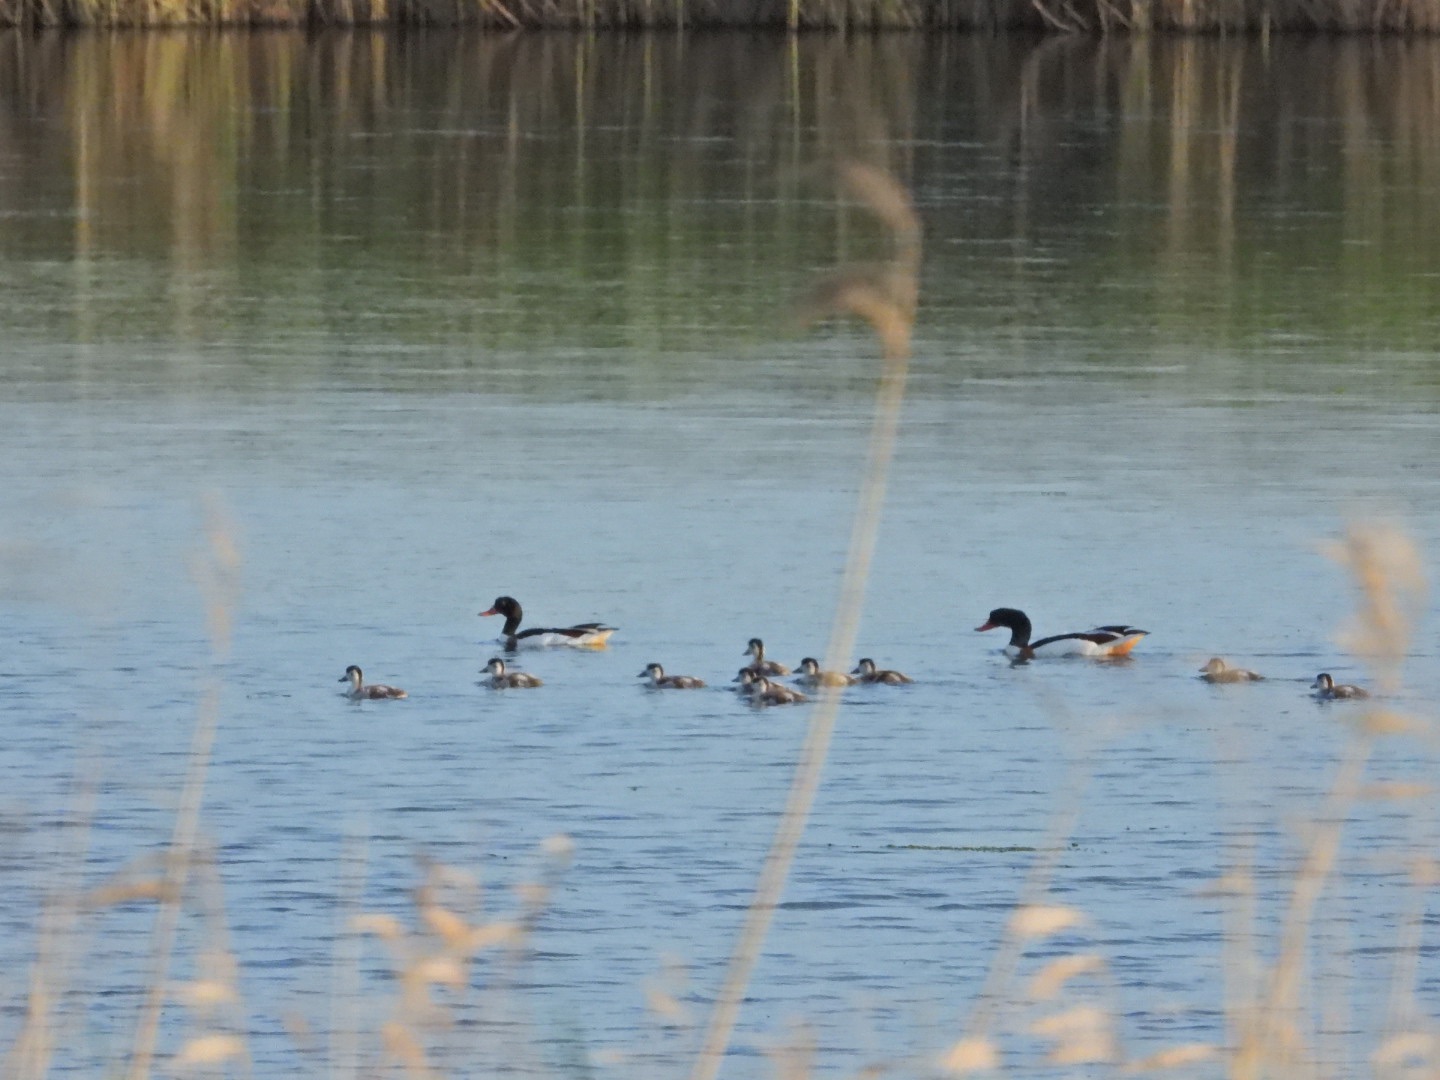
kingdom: Animalia
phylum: Chordata
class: Aves
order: Anseriformes
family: Anatidae
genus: Tadorna
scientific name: Tadorna tadorna
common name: Gravand
